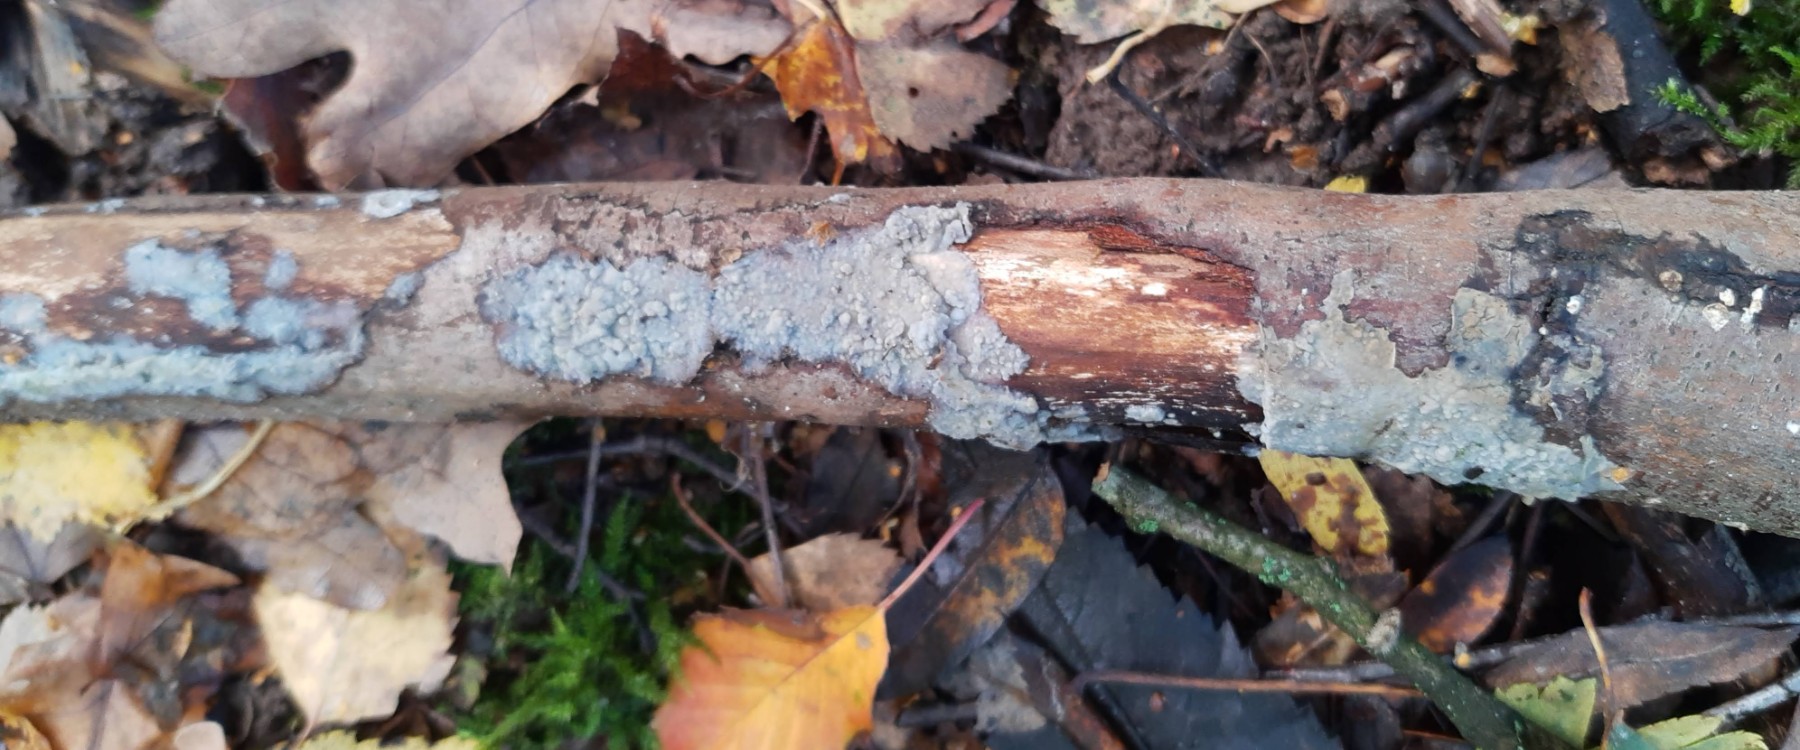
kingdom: Fungi
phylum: Basidiomycota
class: Agaricomycetes
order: Agaricales
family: Radulomycetaceae
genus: Aphanobasidium
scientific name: Aphanobasidium pseudotsugae
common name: tynd naftalinskind
